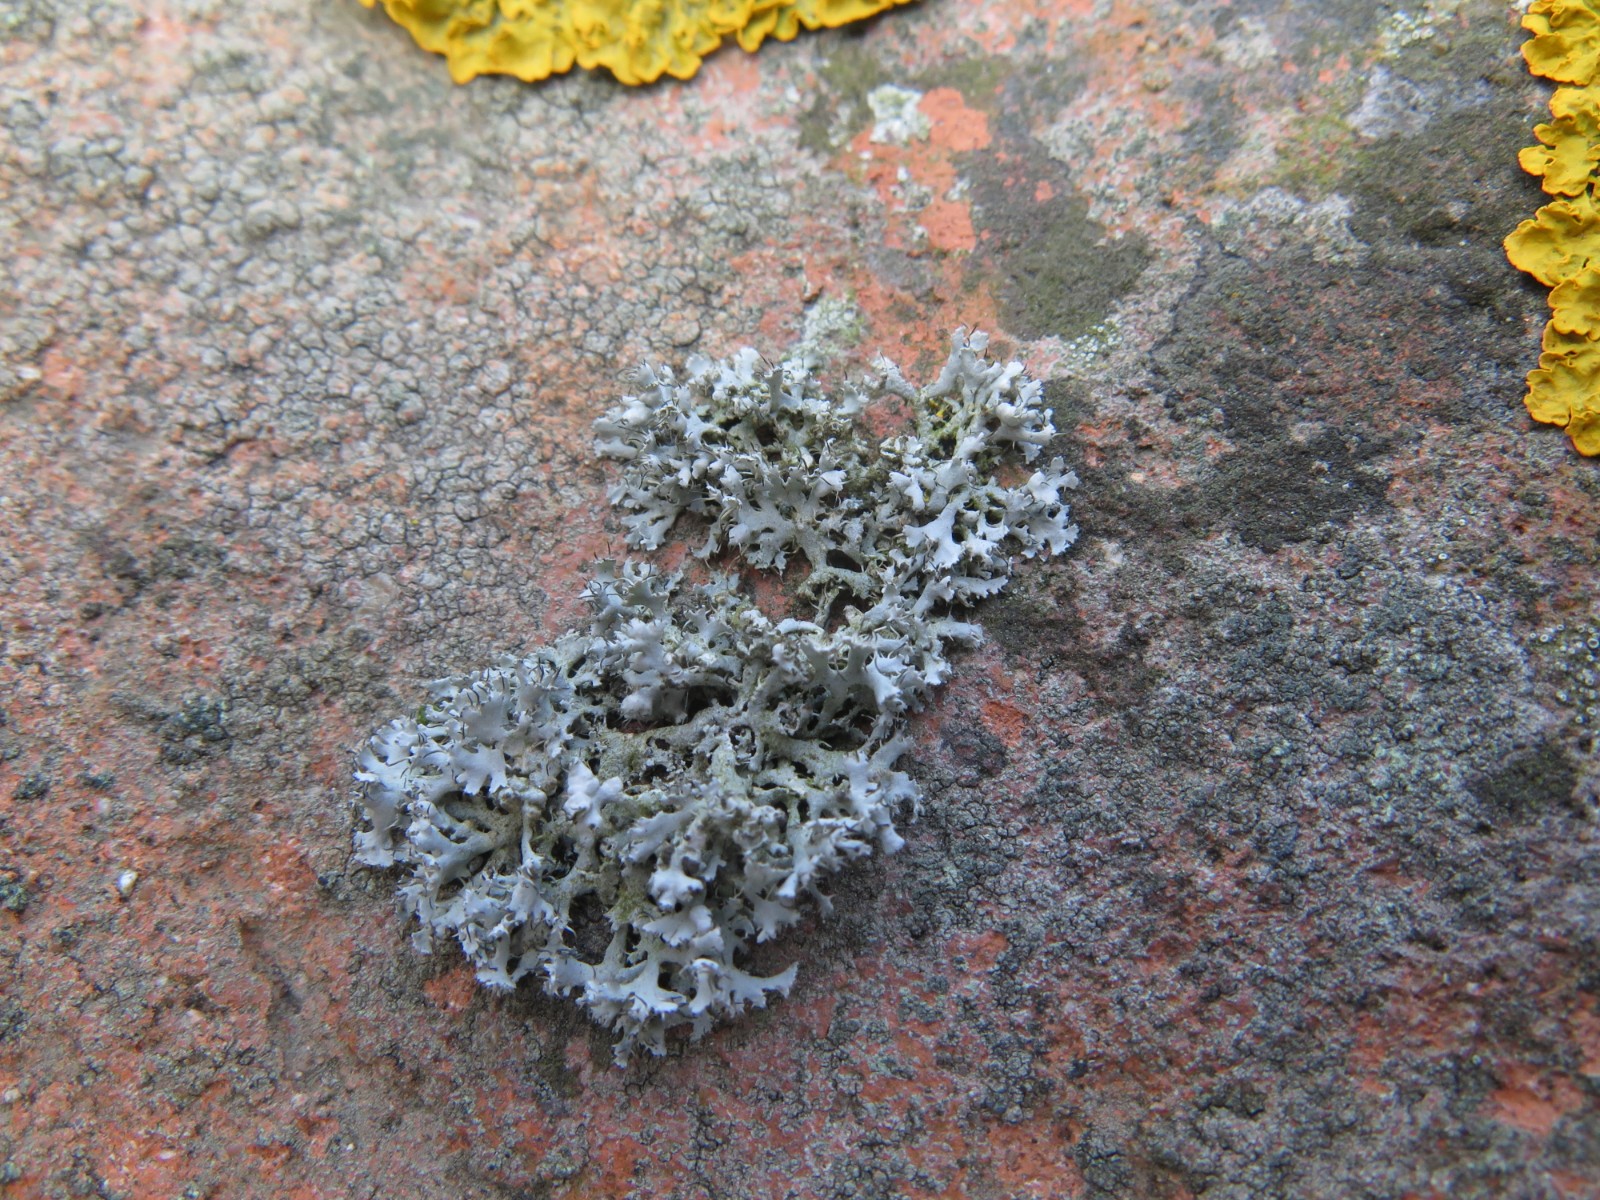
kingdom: Fungi
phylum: Ascomycota
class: Lecanoromycetes
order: Caliciales
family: Physciaceae
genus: Physcia
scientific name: Physcia tenella
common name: spæd rosetlav
